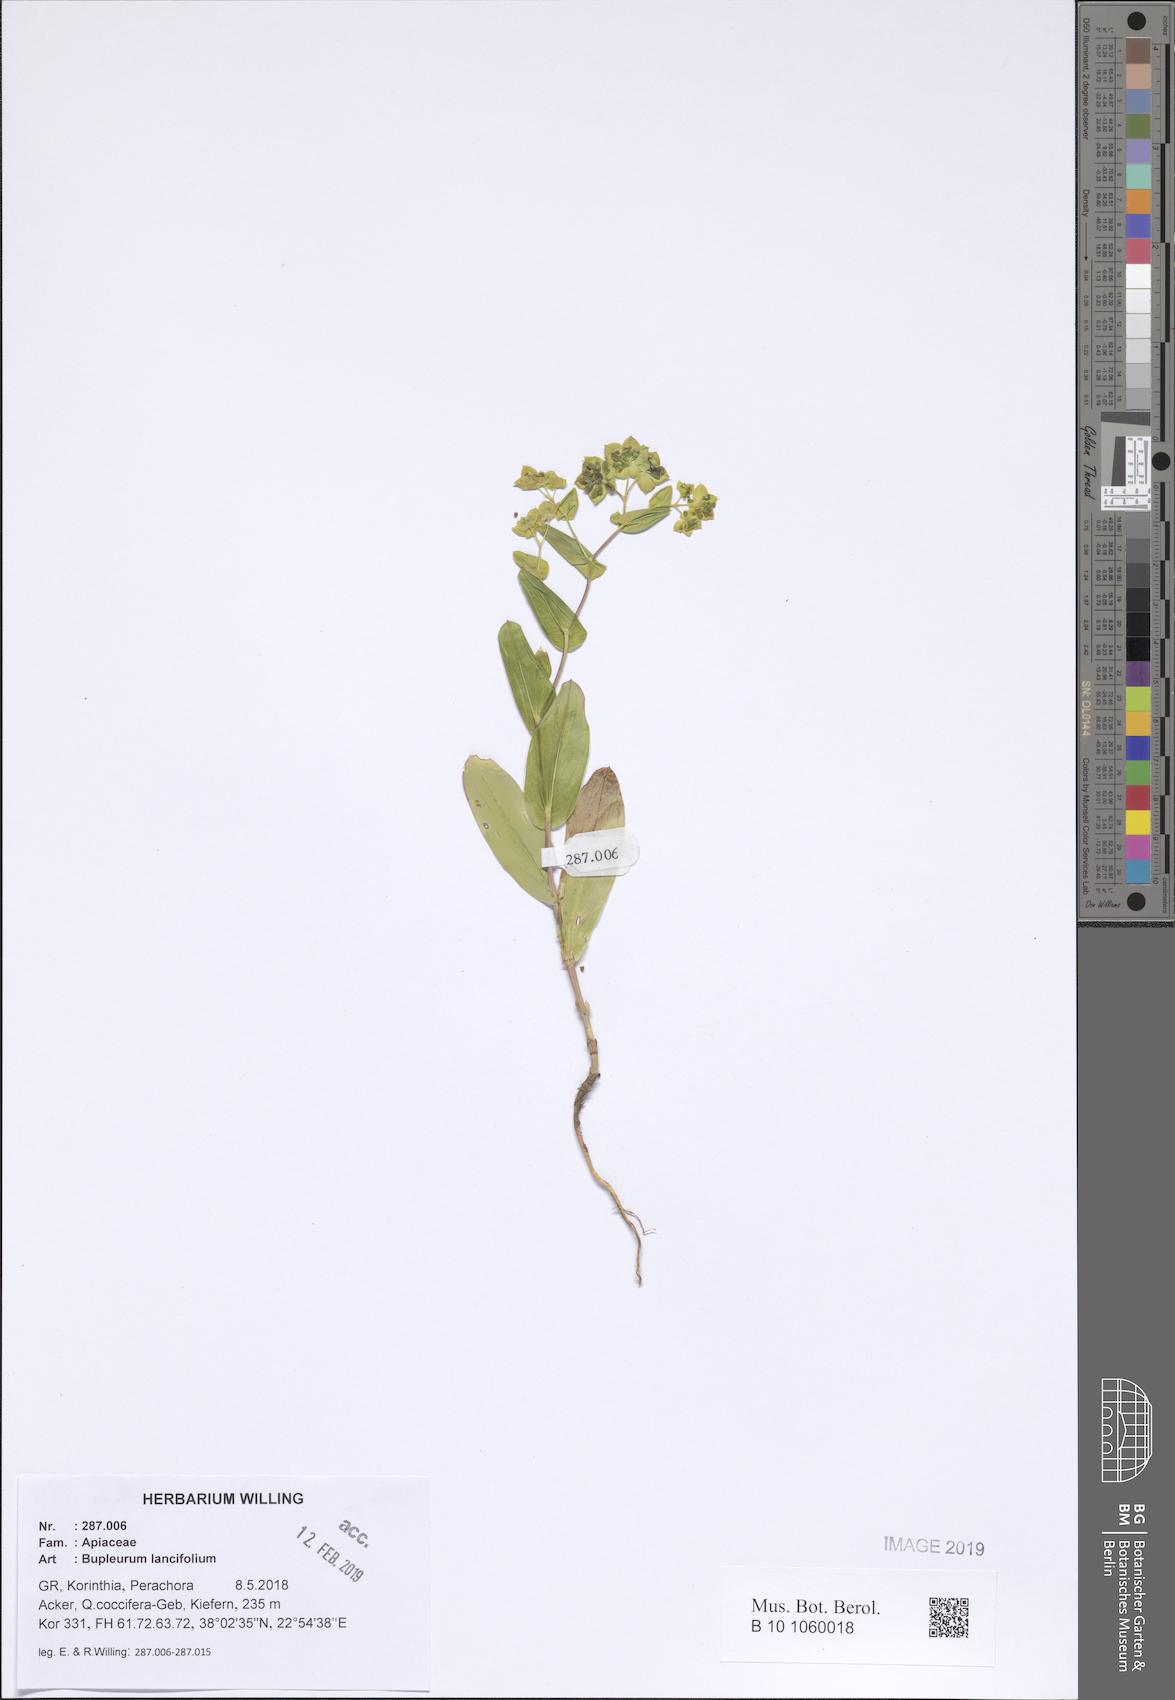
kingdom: Plantae
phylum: Tracheophyta
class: Magnoliopsida
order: Apiales
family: Apiaceae
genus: Bupleurum
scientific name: Bupleurum lancifolium
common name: False thorow-wax
